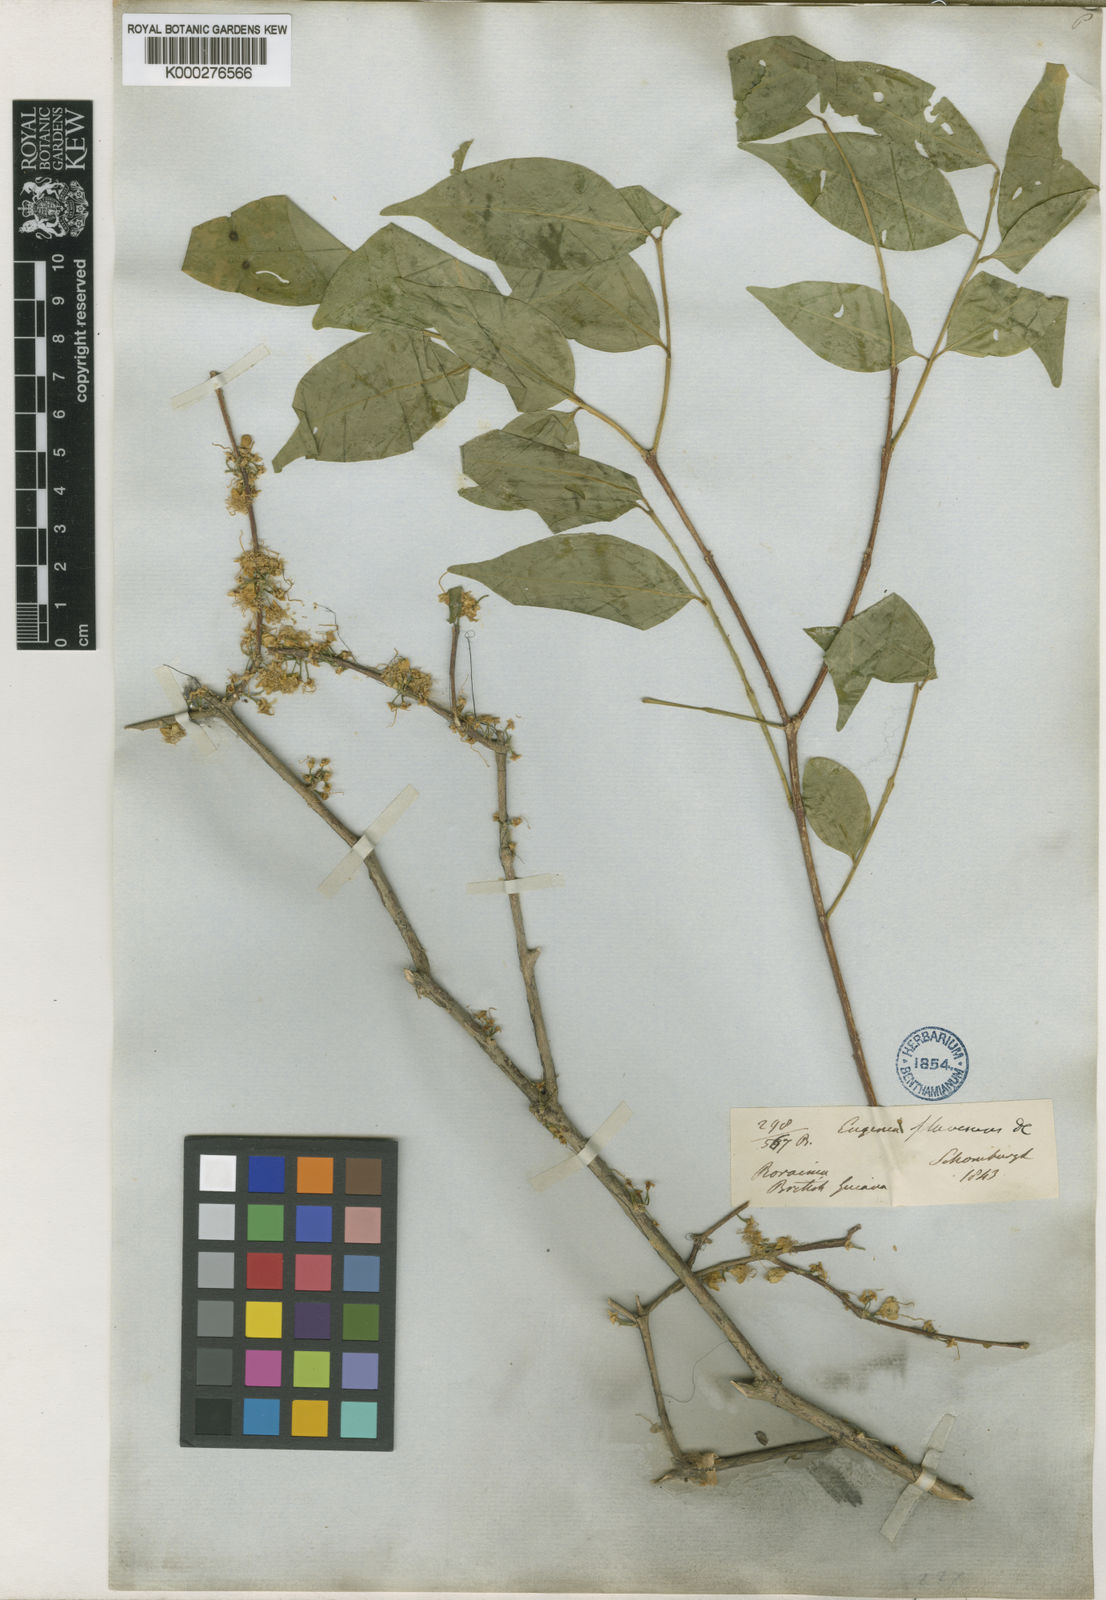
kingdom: Plantae
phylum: Tracheophyta
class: Magnoliopsida
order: Myrtales
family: Myrtaceae
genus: Eugenia
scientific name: Eugenia flavescens
